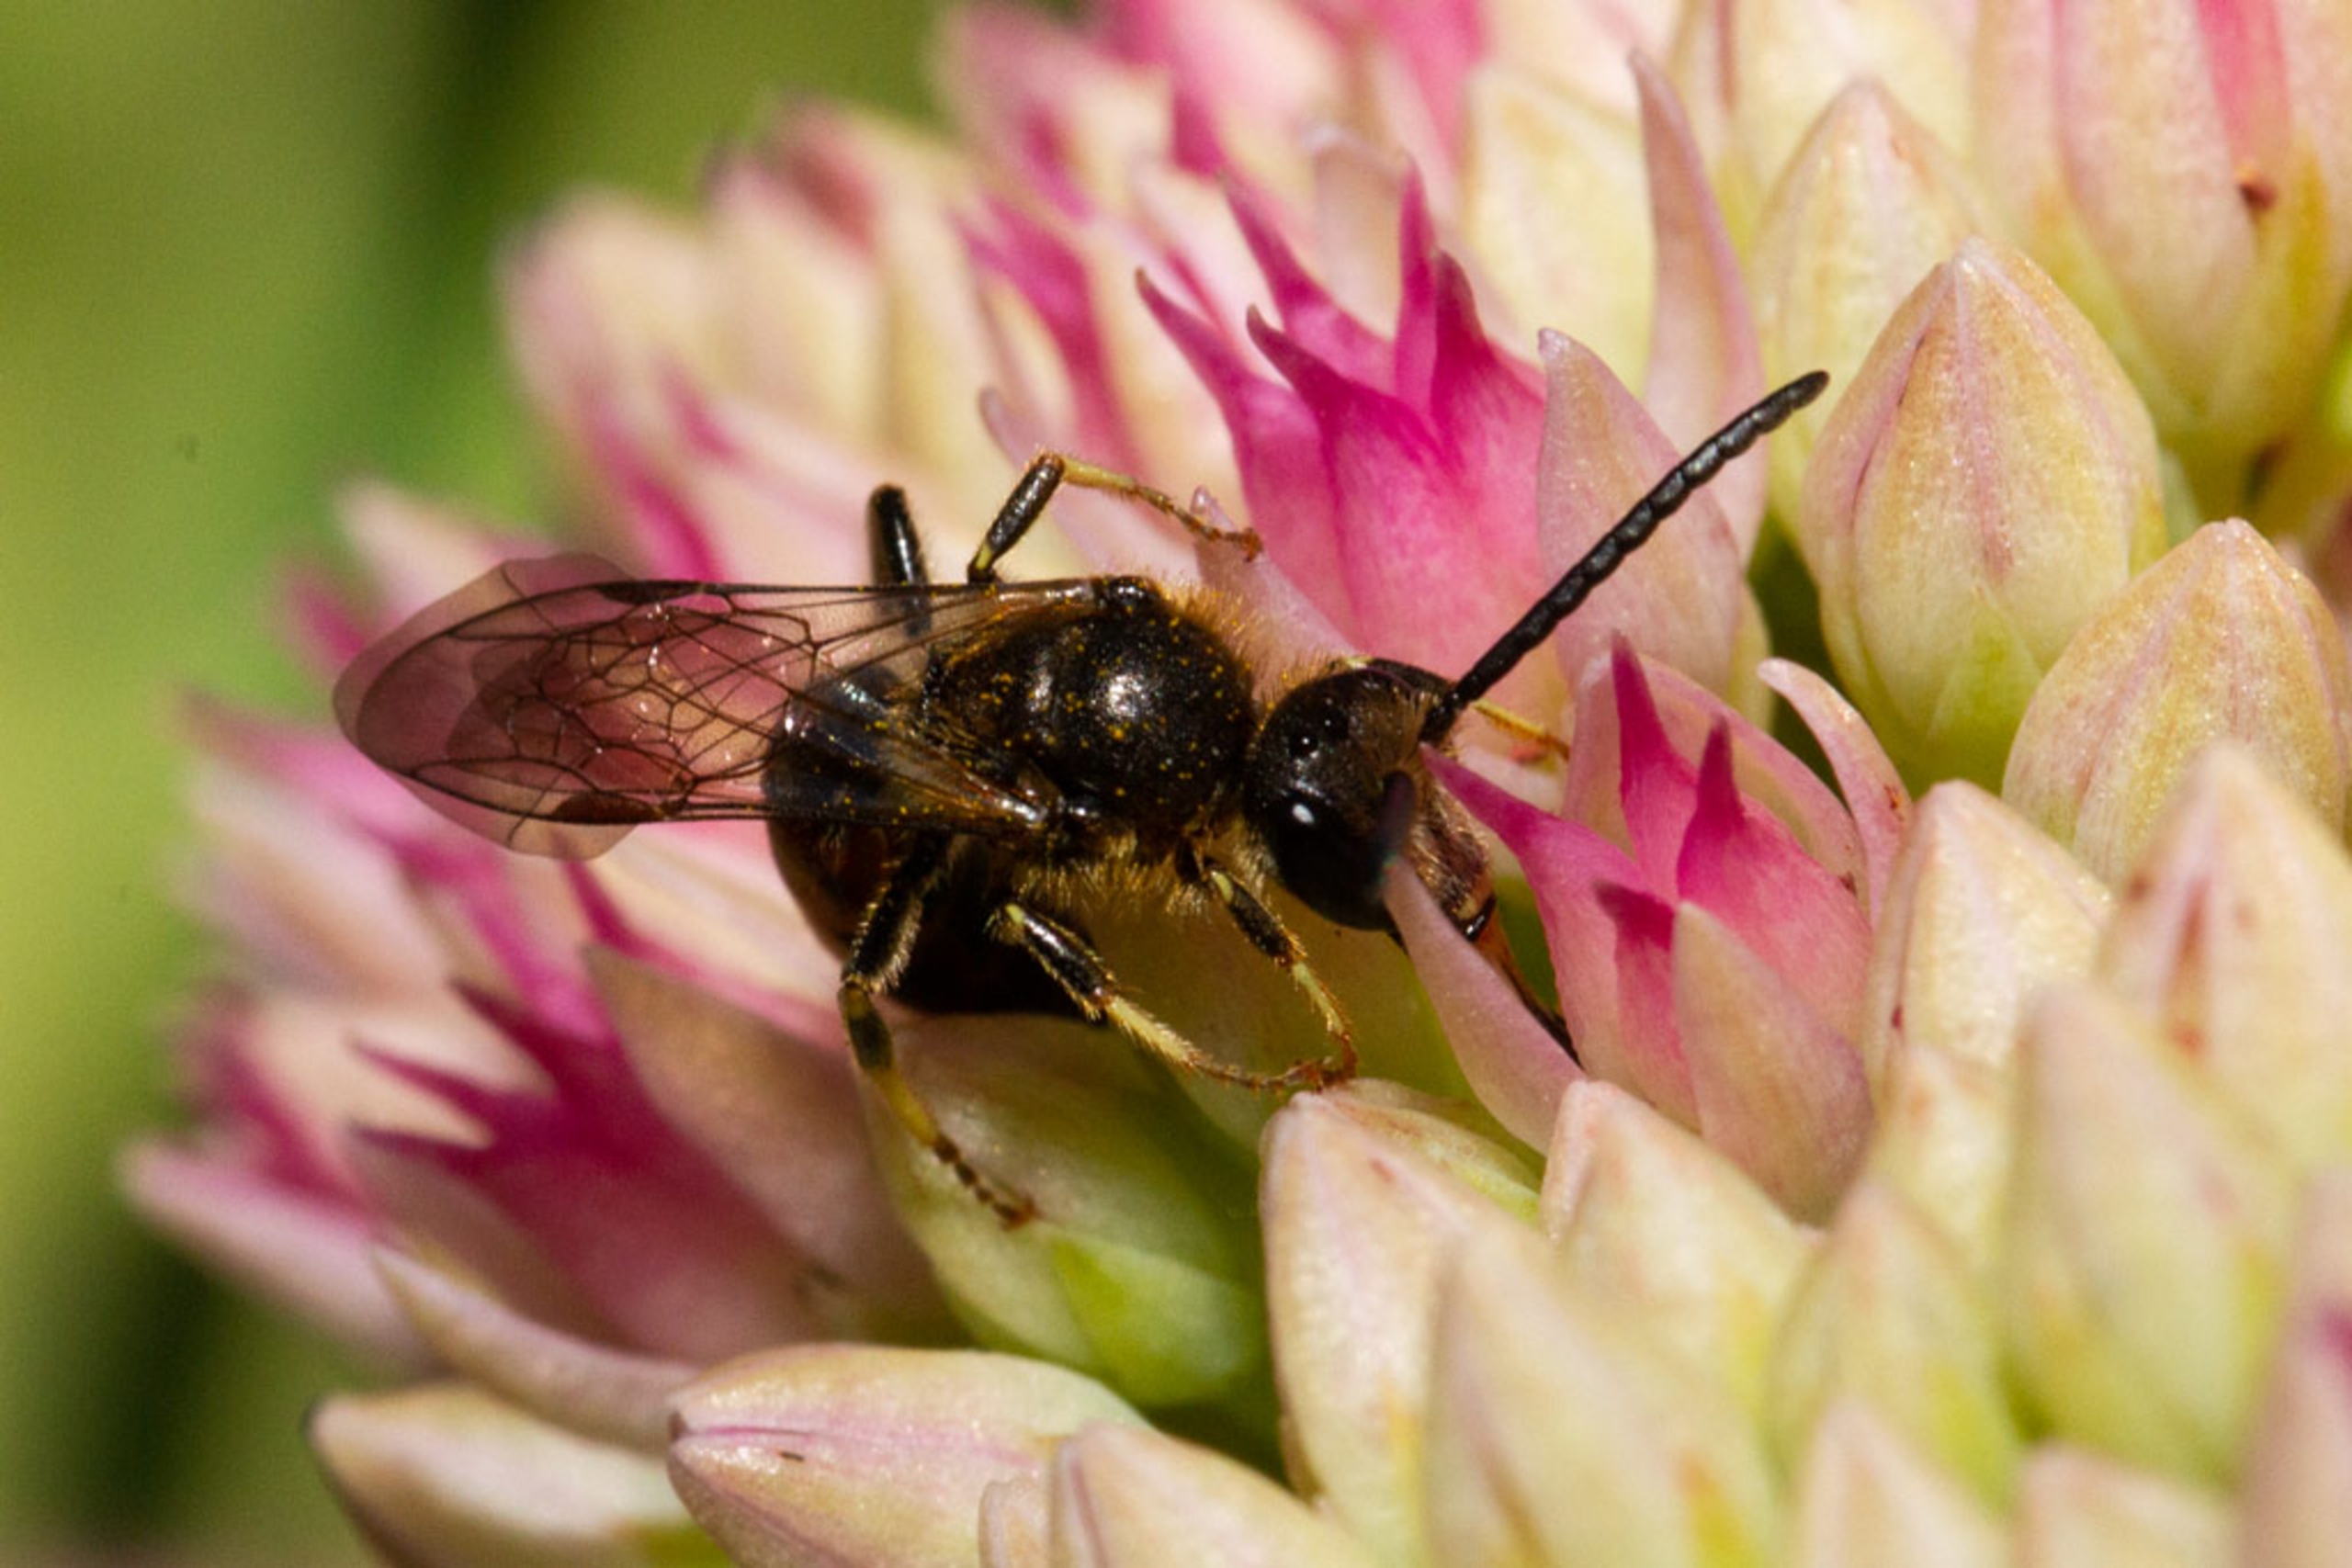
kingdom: Animalia
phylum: Arthropoda
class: Insecta
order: Hymenoptera
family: Halictidae
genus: Lasioglossum
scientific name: Lasioglossum calceatum
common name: Moskussmalbi
